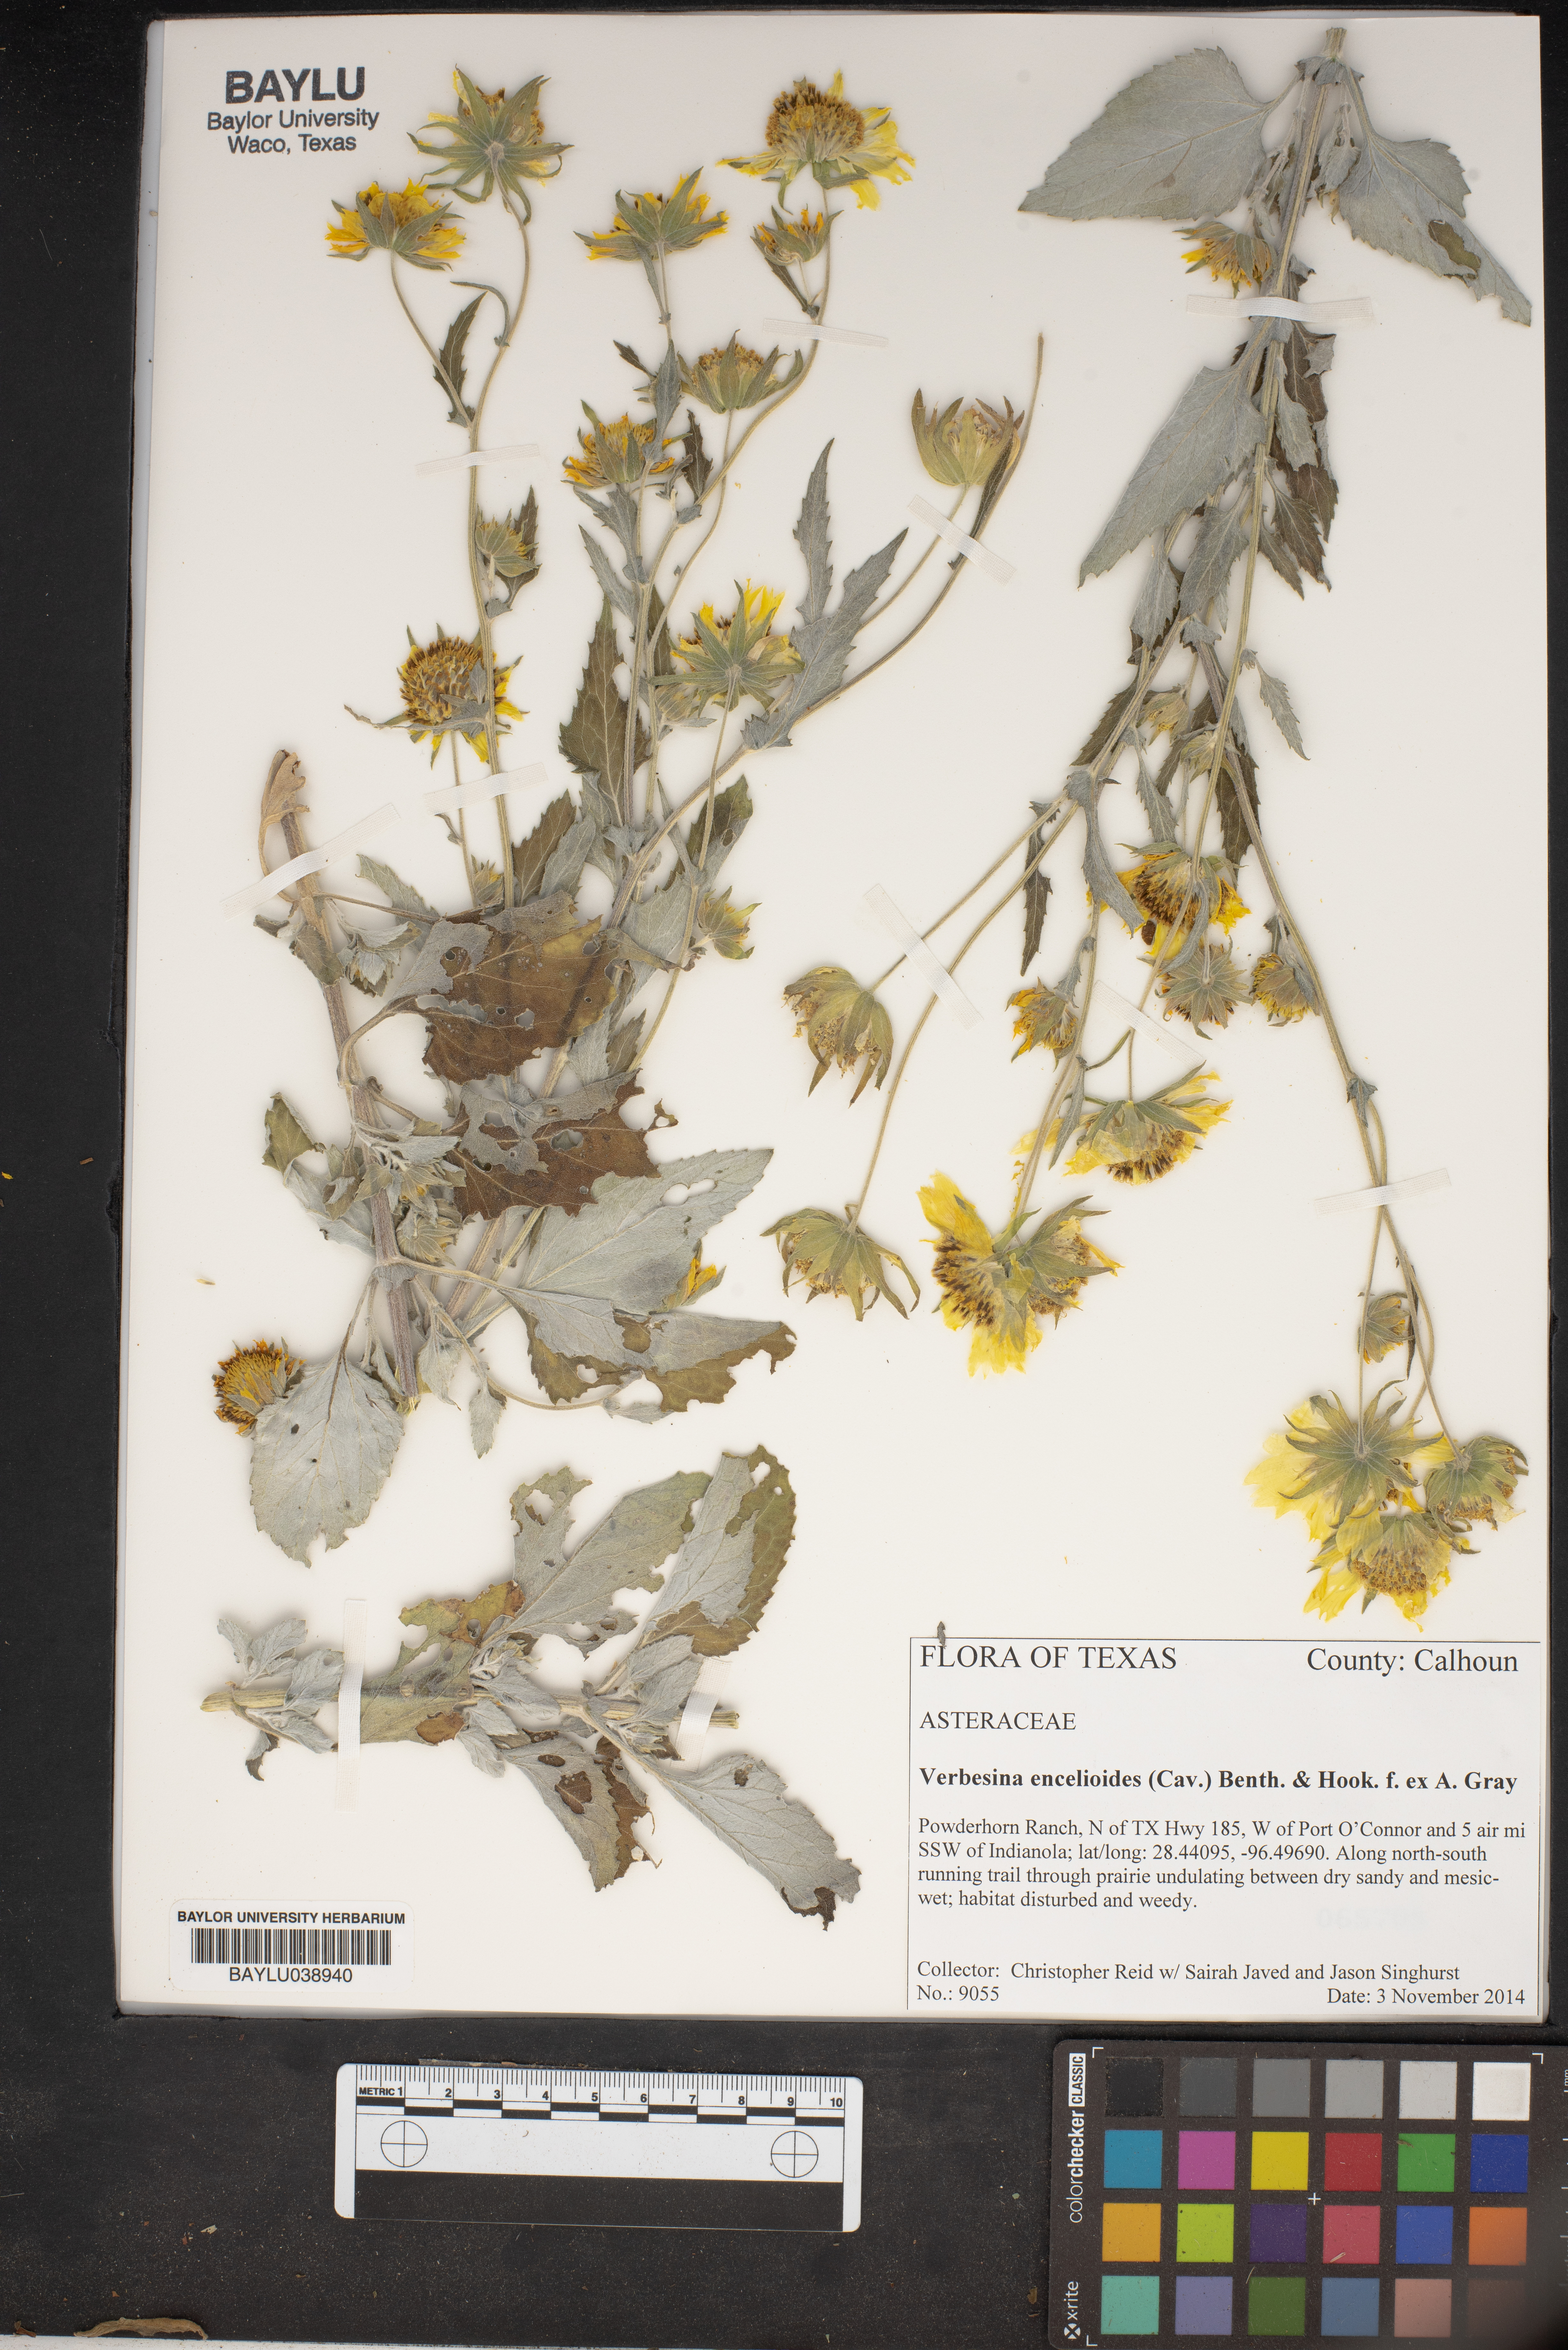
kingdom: Plantae
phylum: Tracheophyta
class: Magnoliopsida
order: Asterales
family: Asteraceae
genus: Verbesina
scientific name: Verbesina encelioides
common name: Golden crownbeard
